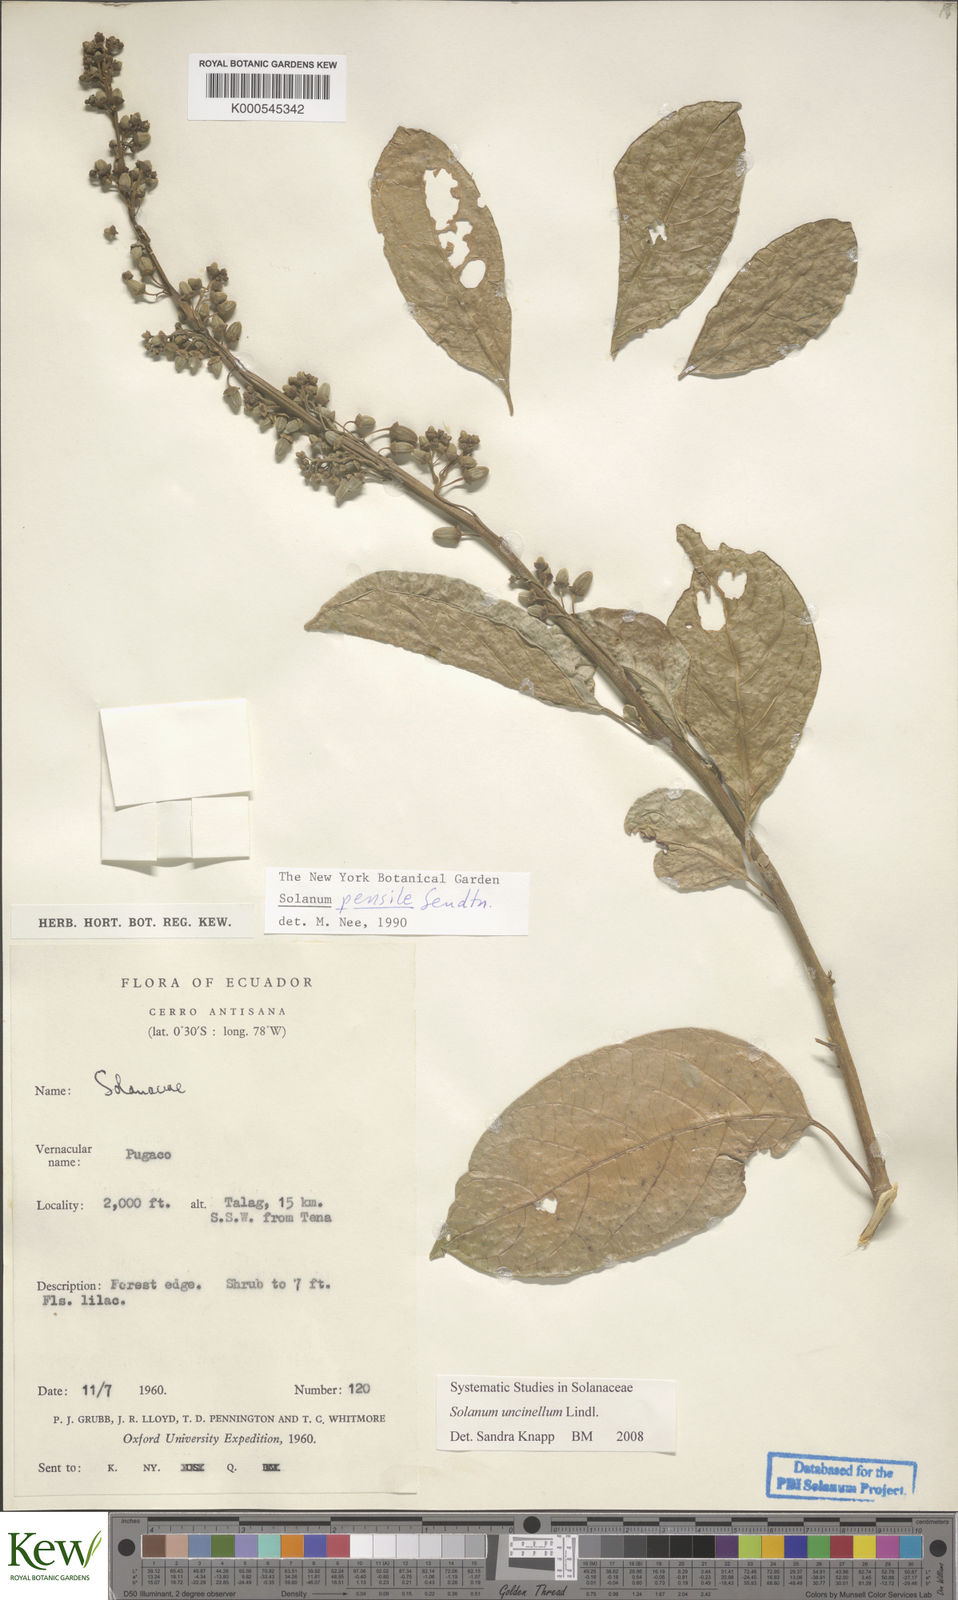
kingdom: Plantae
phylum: Tracheophyta
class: Magnoliopsida
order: Solanales
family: Solanaceae
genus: Solanum
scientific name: Solanum uncinellum
